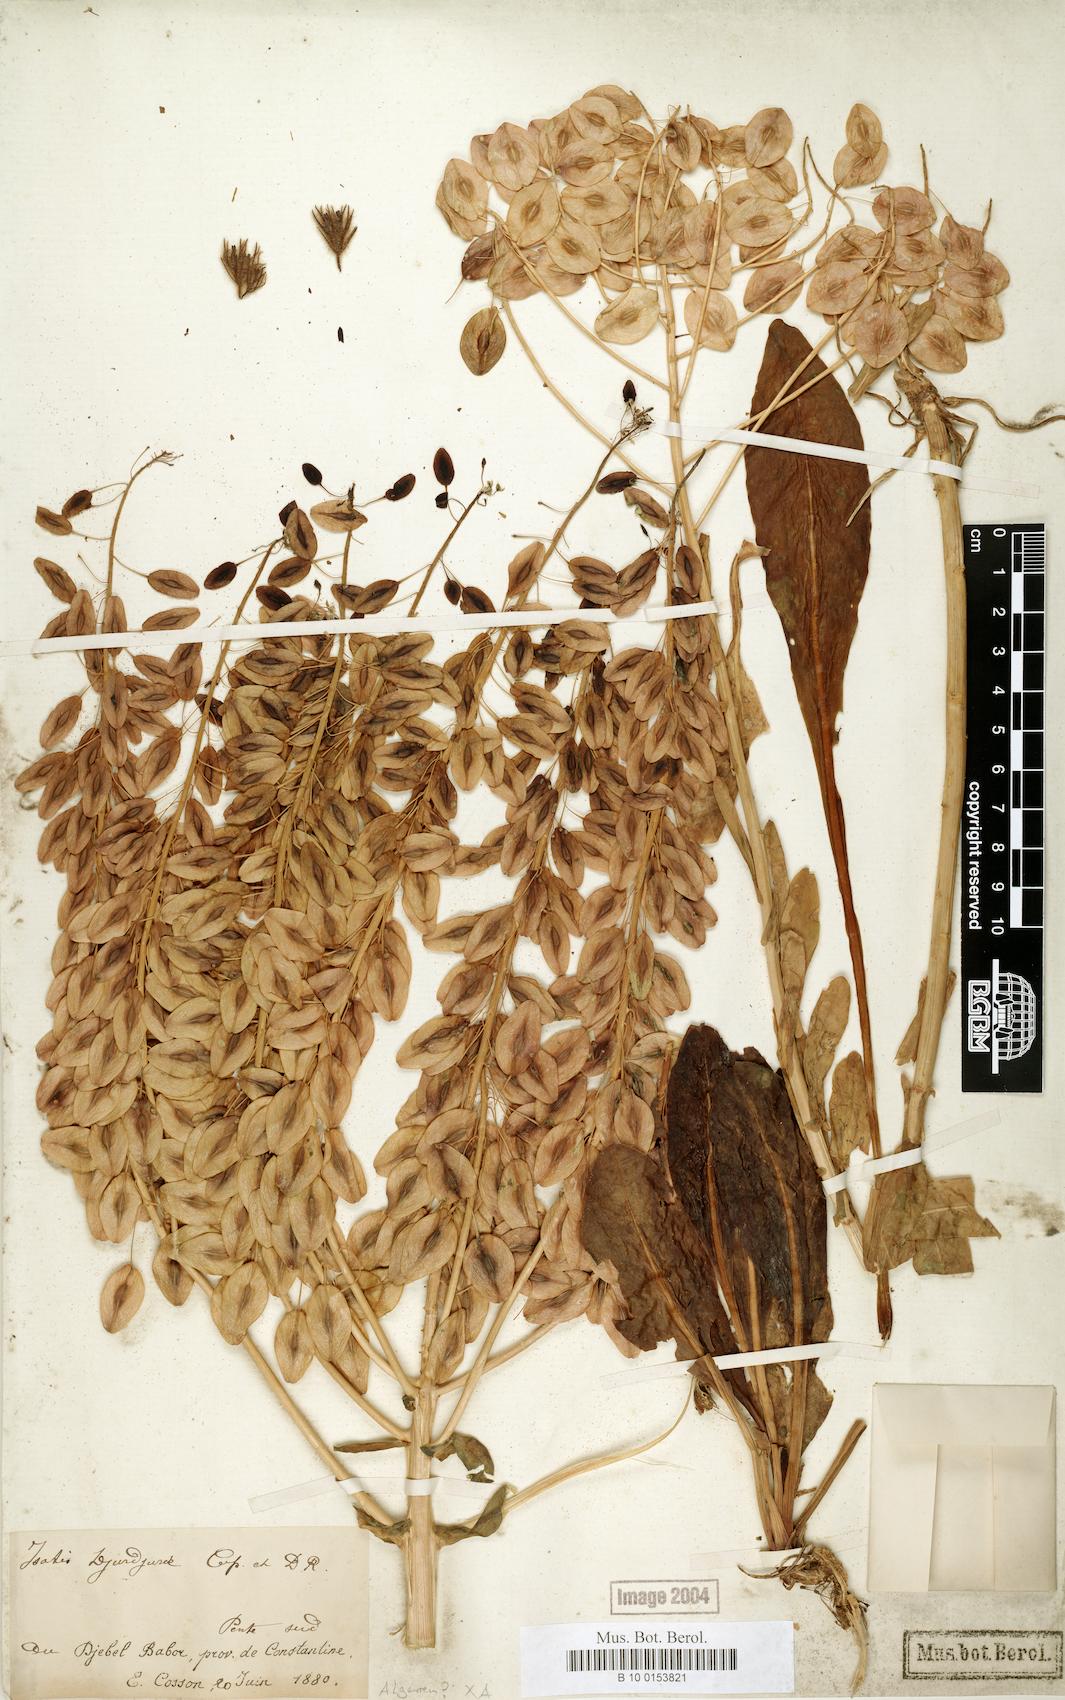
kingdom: Plantae
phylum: Tracheophyta
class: Magnoliopsida
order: Brassicales
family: Brassicaceae
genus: Isatis
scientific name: Isatis djurdjurae
